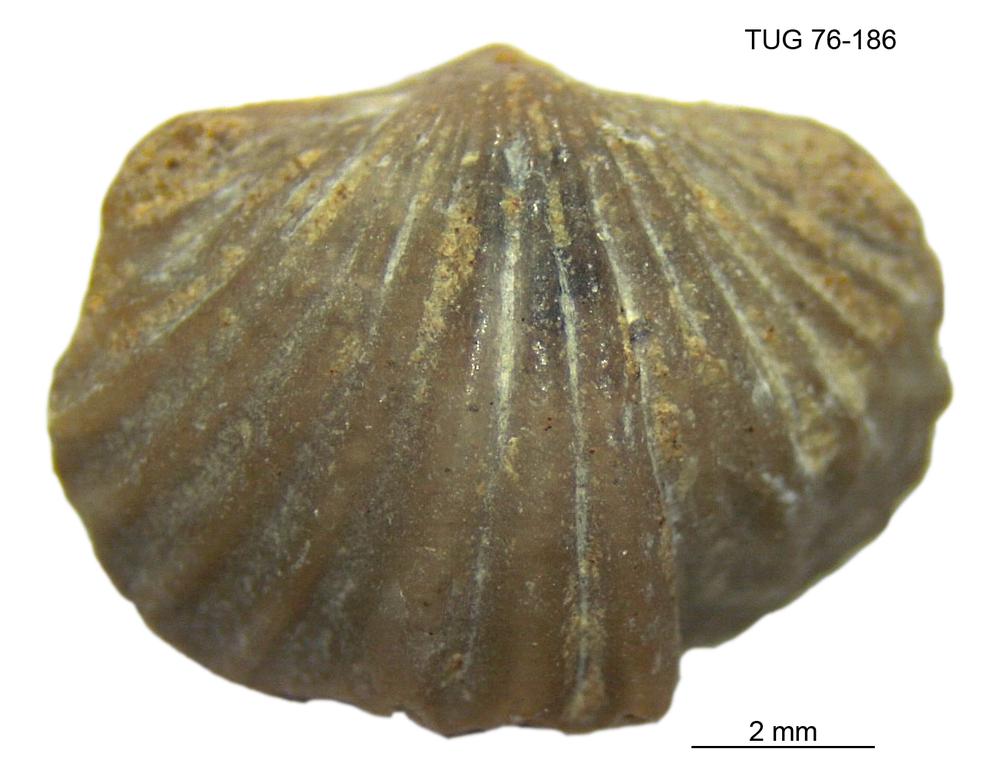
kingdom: Animalia
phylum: Brachiopoda
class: Rhynchonellata
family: Plectorthidae
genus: Platystrophia
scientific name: Platystrophia dentata
